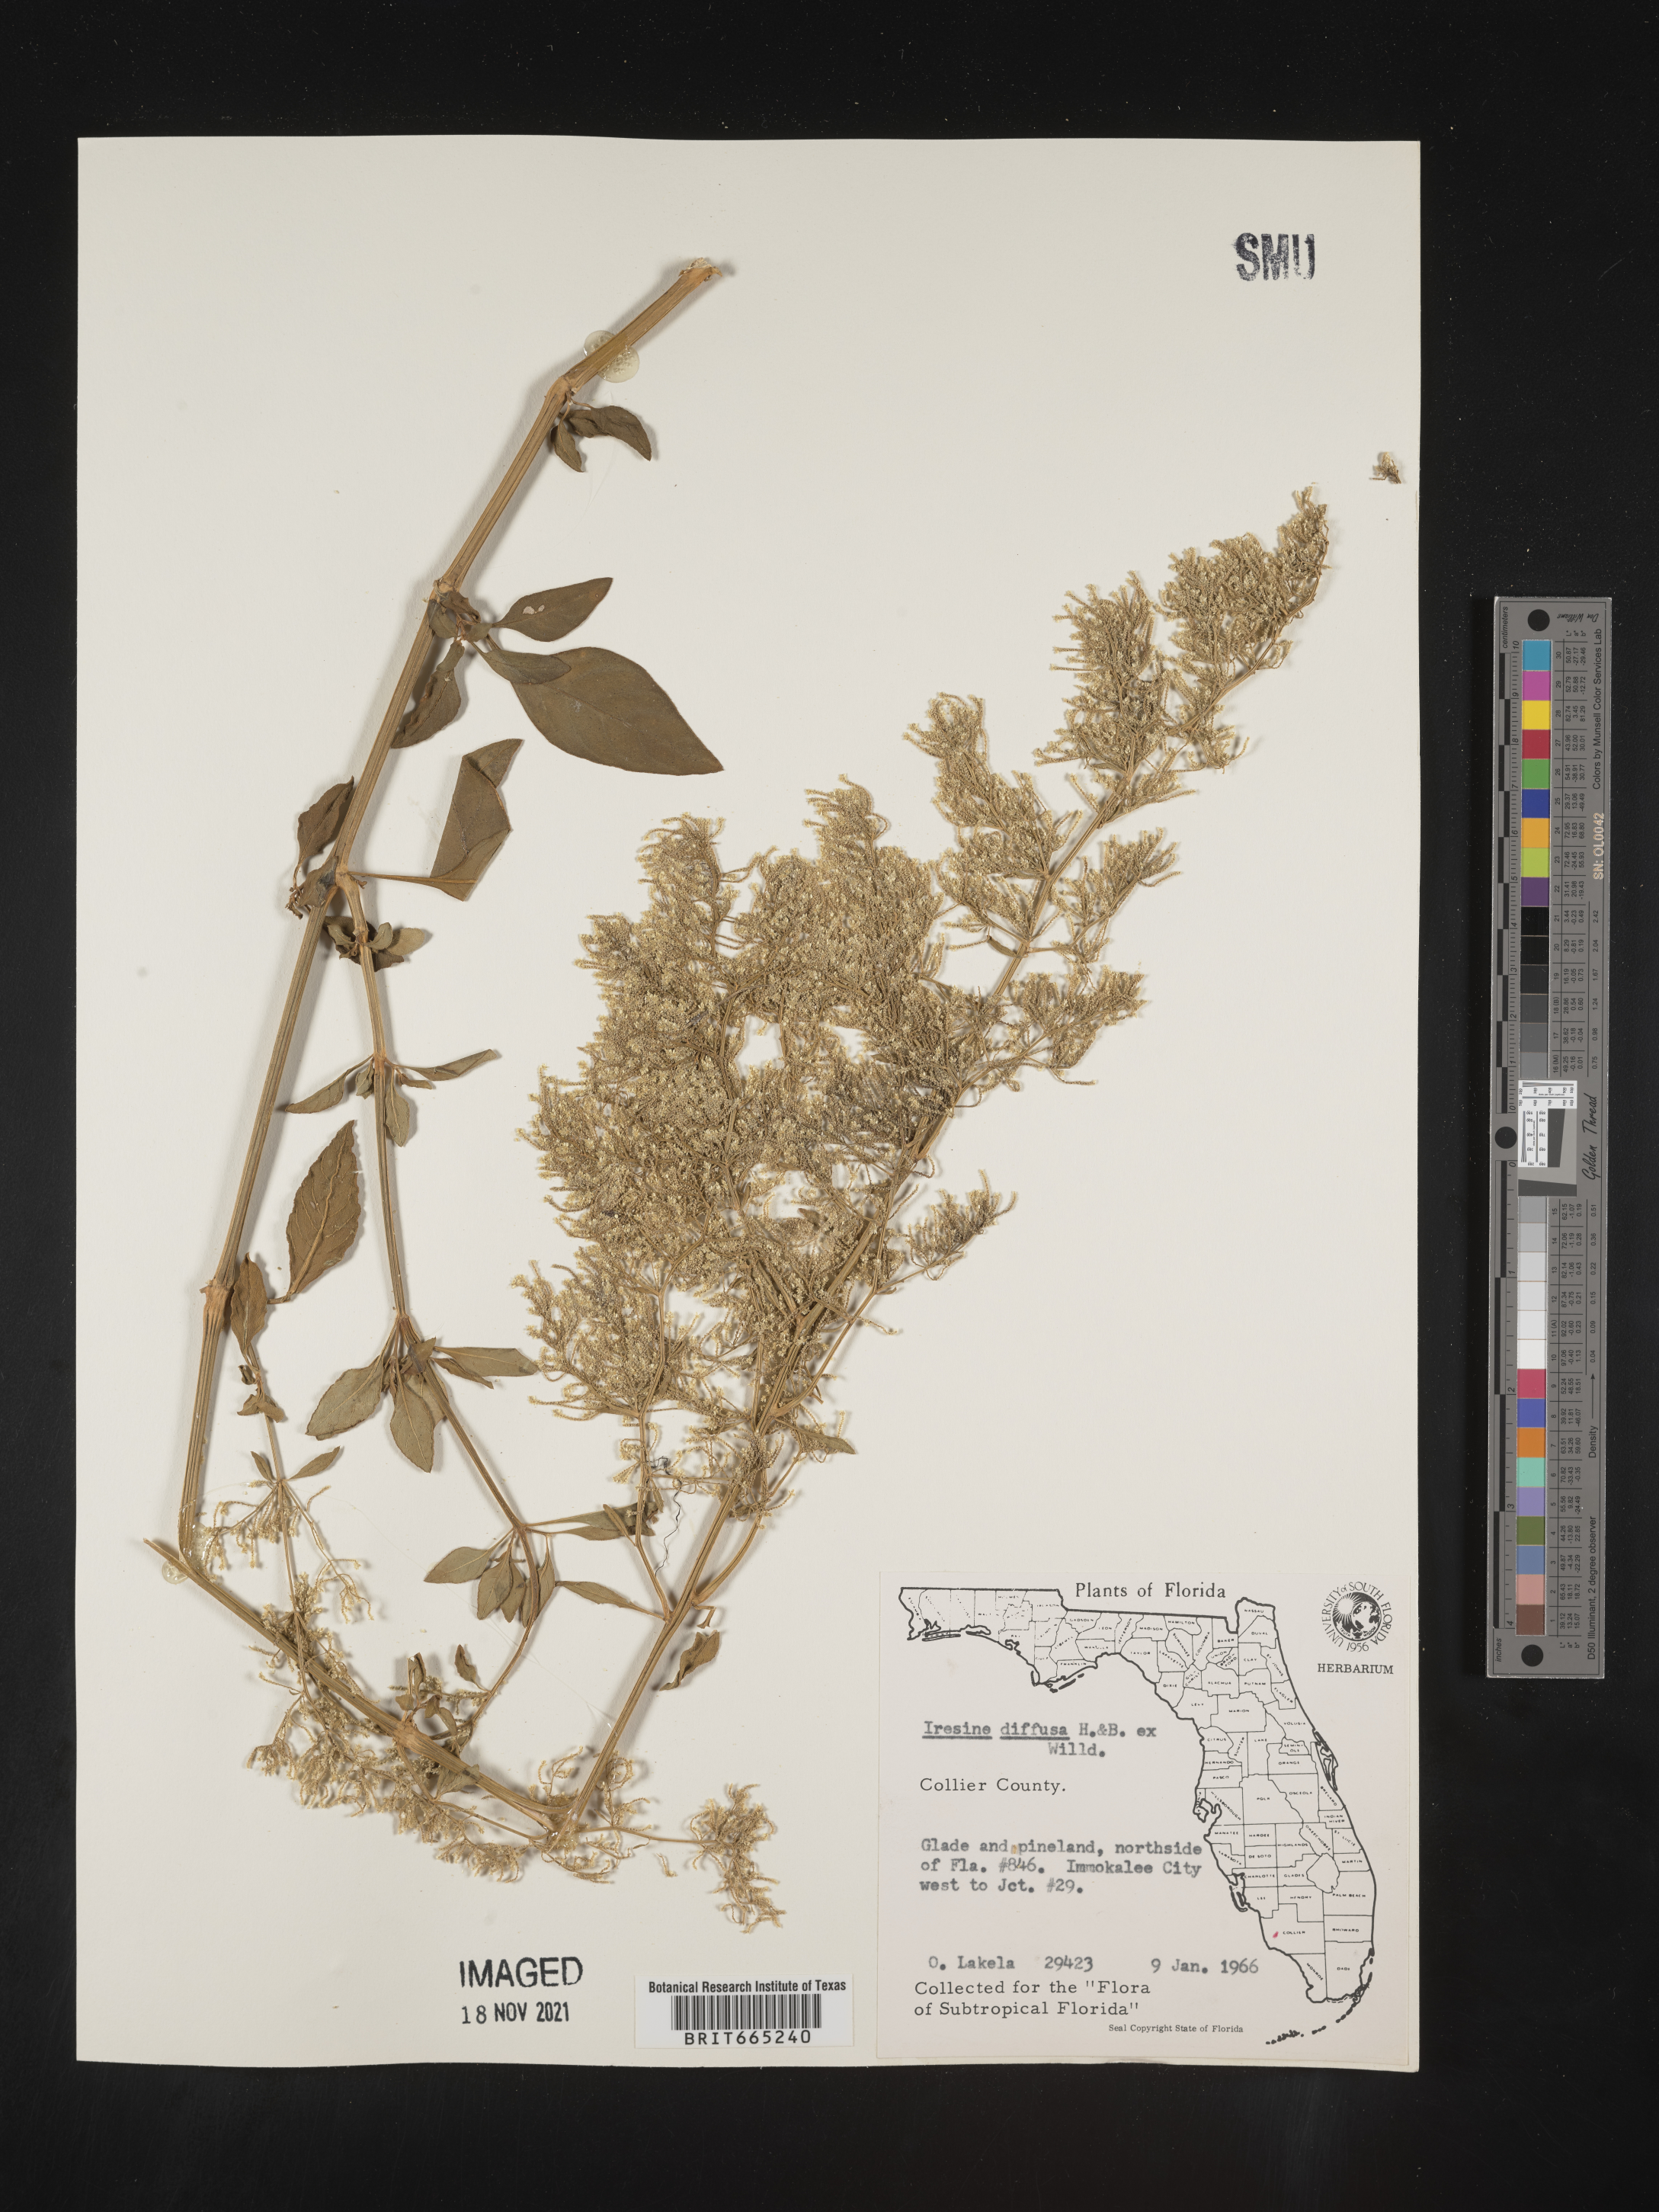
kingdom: Plantae
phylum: Tracheophyta
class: Magnoliopsida
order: Caryophyllales
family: Amaranthaceae
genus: Iresine
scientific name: Iresine
